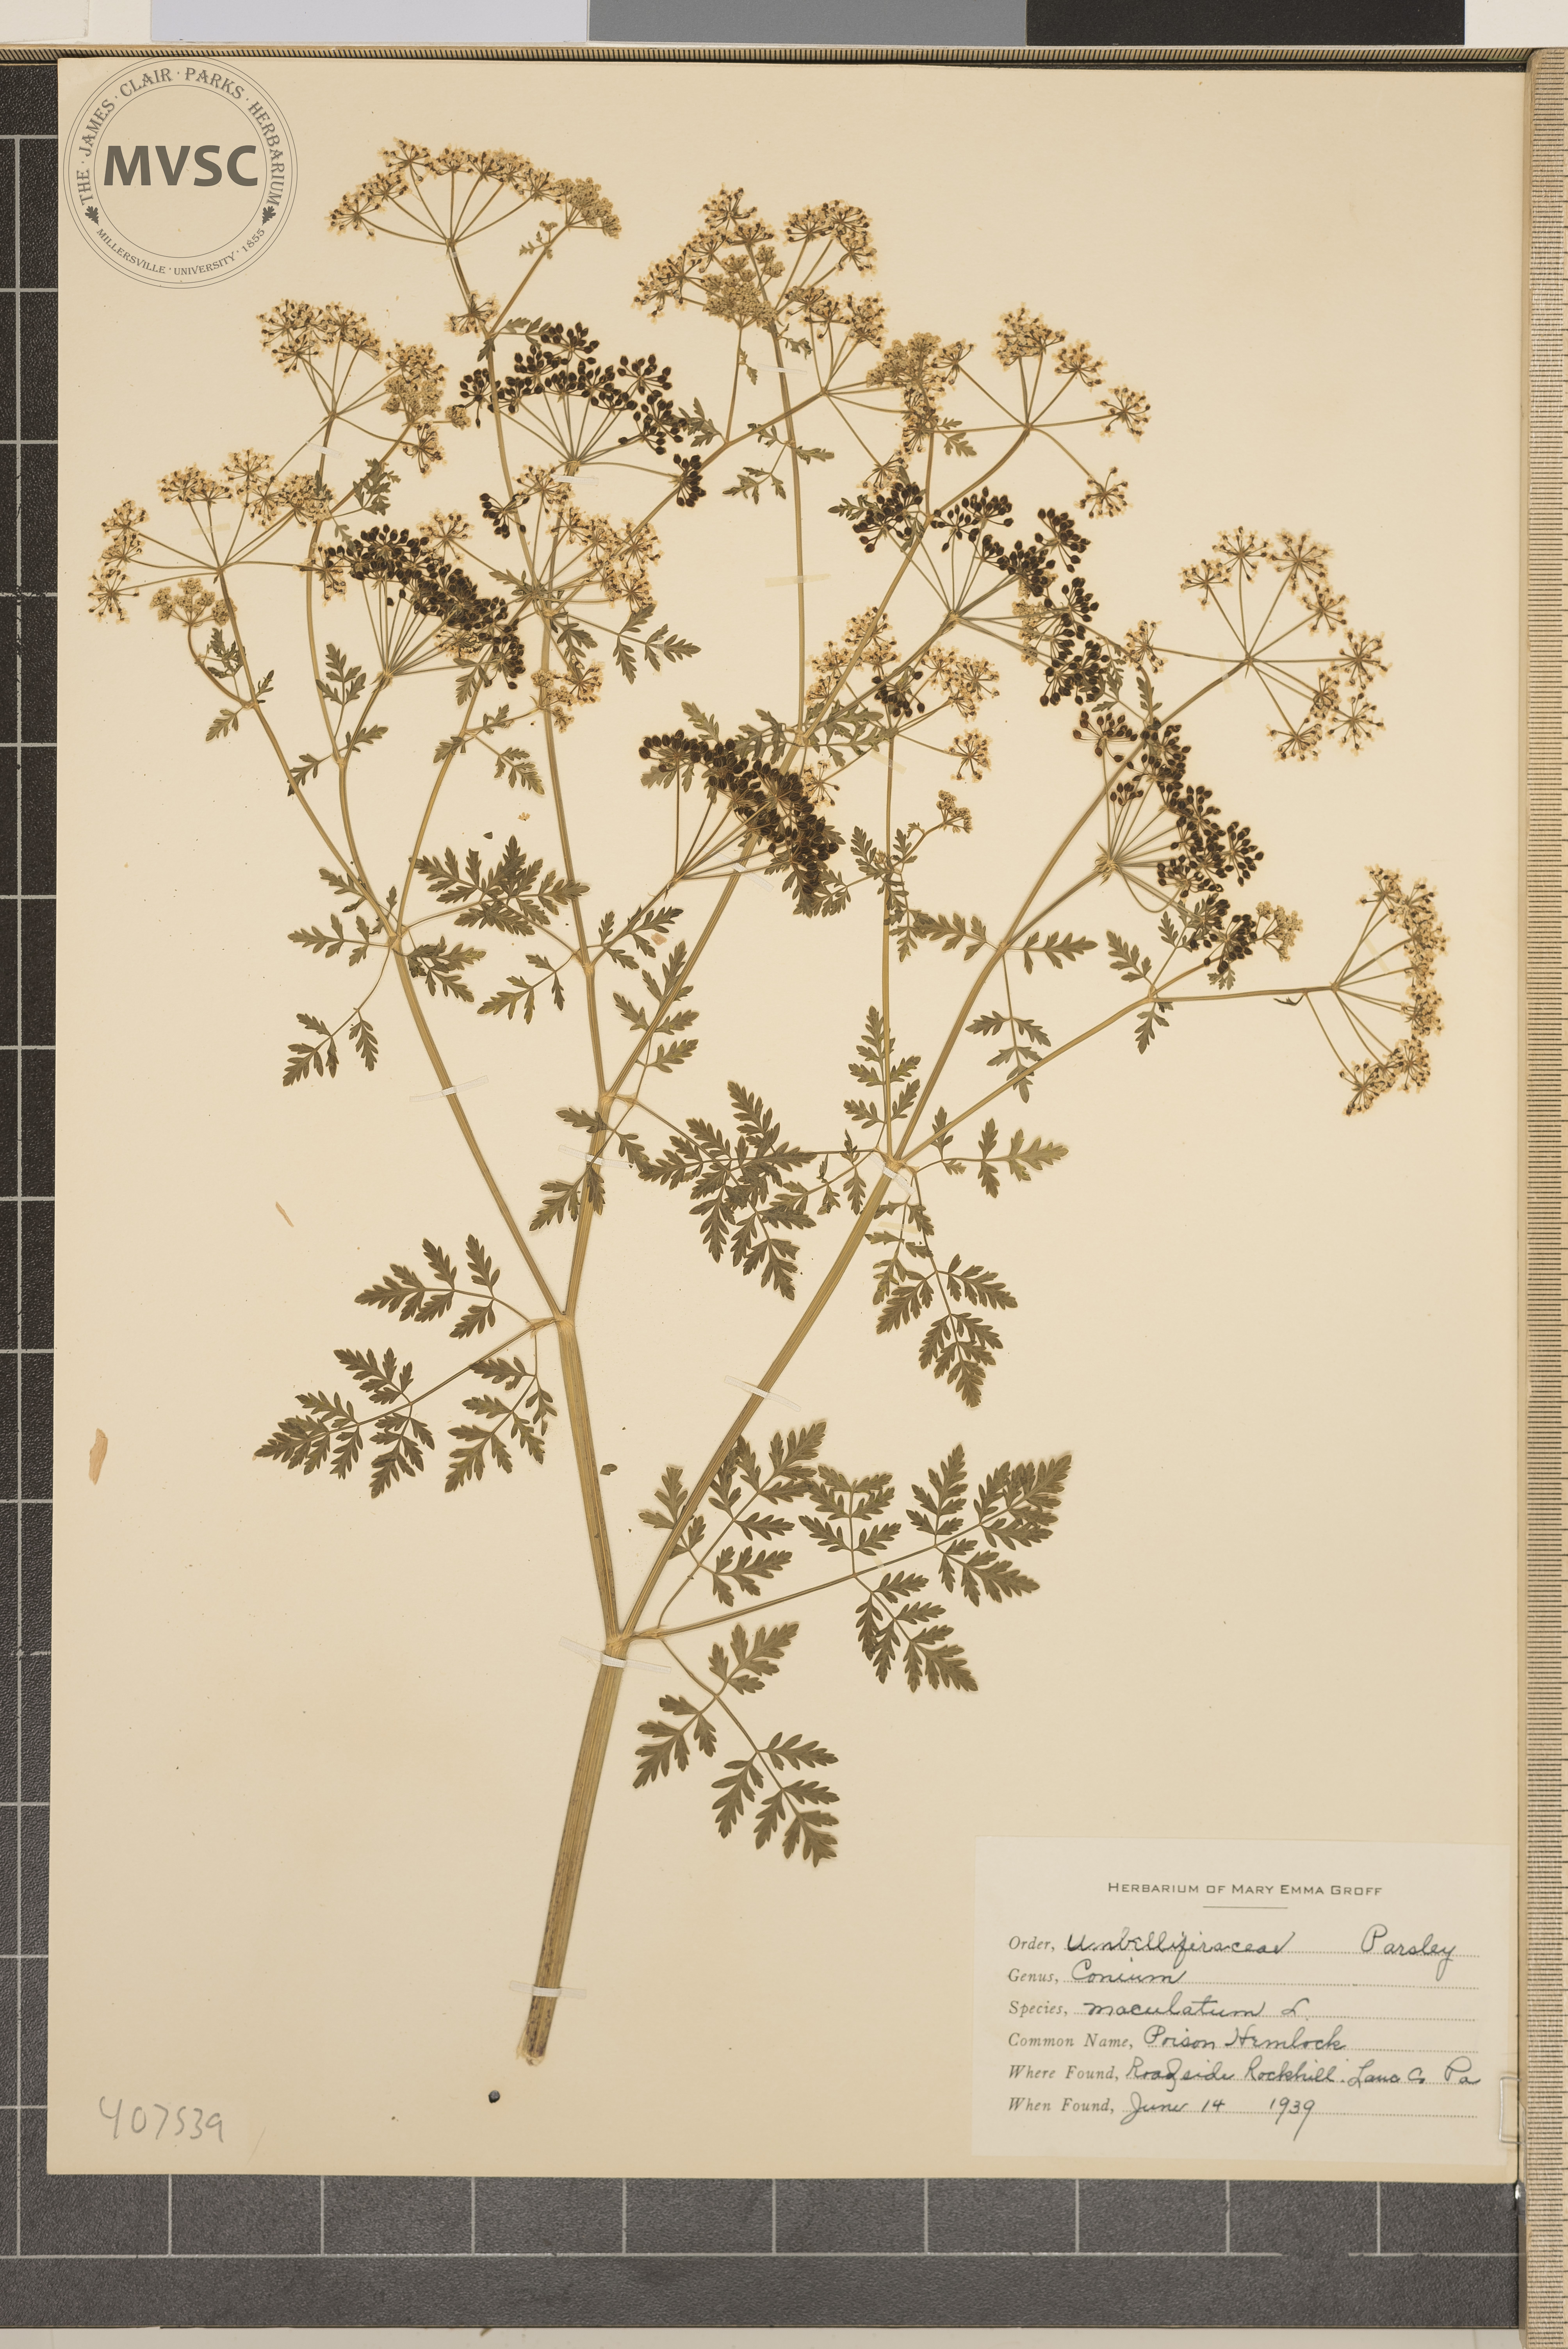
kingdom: Plantae
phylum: Tracheophyta
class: Magnoliopsida
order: Apiales
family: Apiaceae
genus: Conium
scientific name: Conium maculatum
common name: Poison Hemlock
